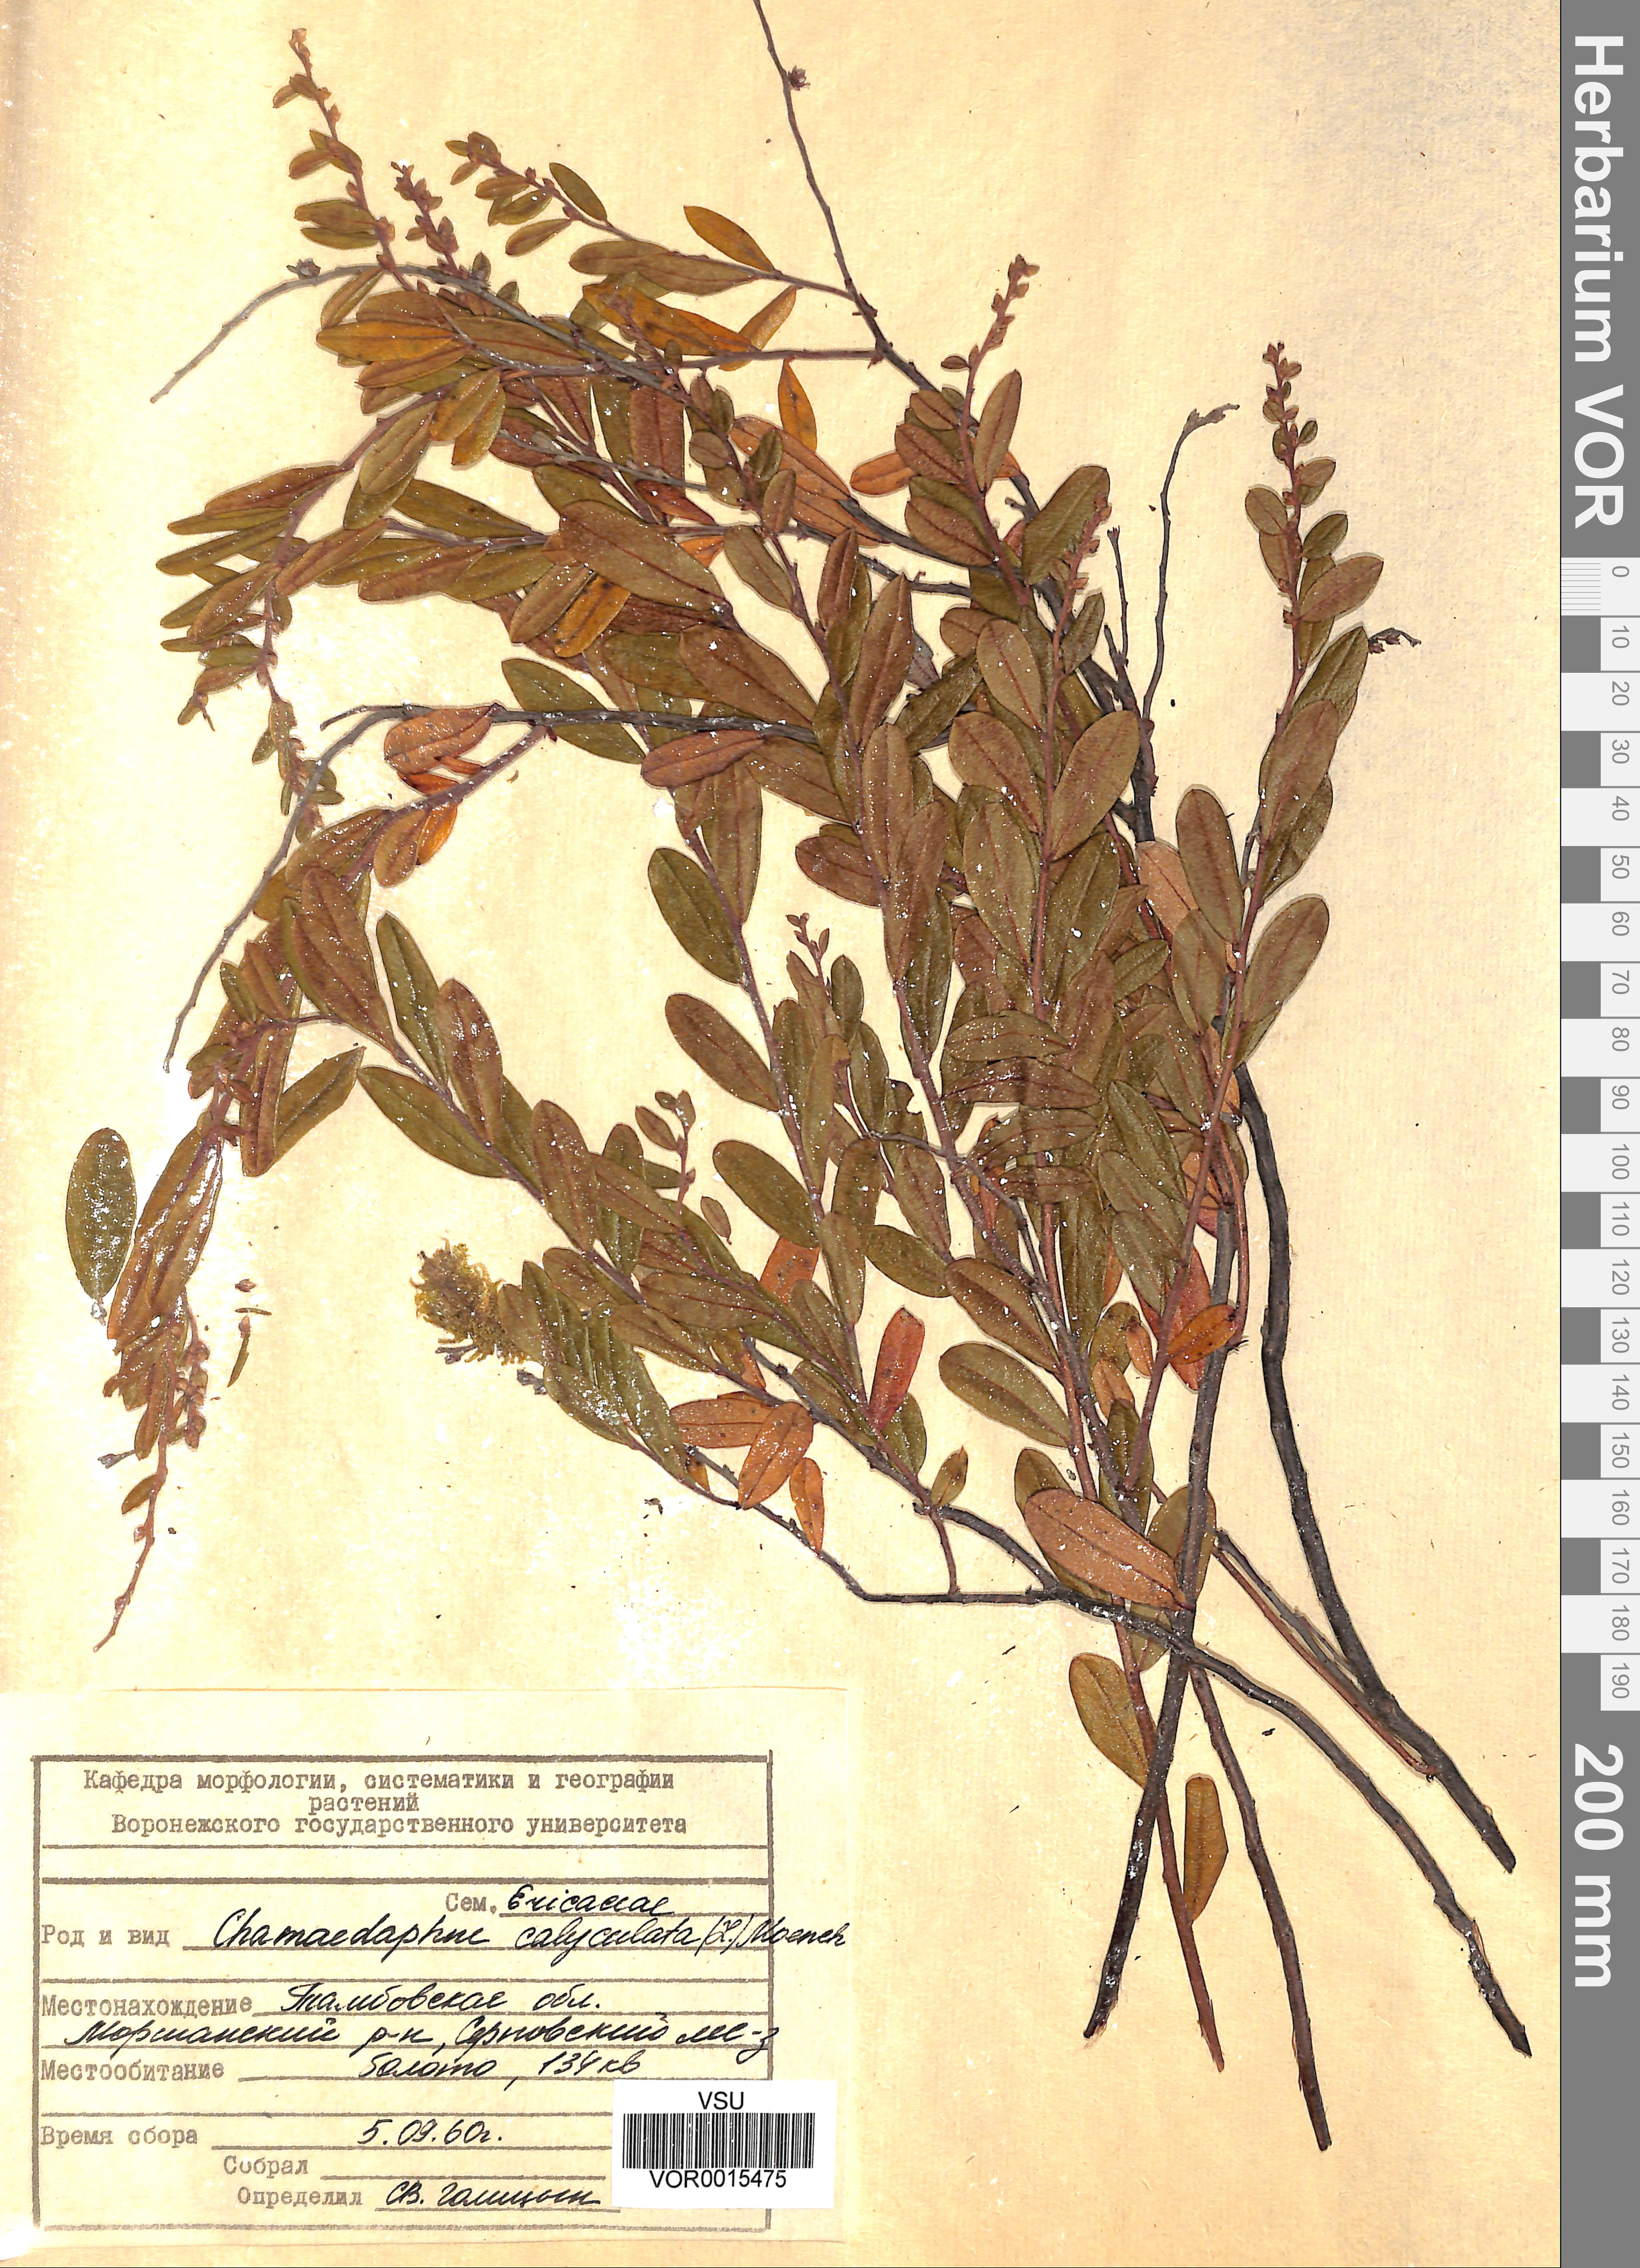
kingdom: Plantae
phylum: Tracheophyta
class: Magnoliopsida
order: Ericales
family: Ericaceae
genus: Chamaedaphne
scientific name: Chamaedaphne calyculata
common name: Leatherleaf
